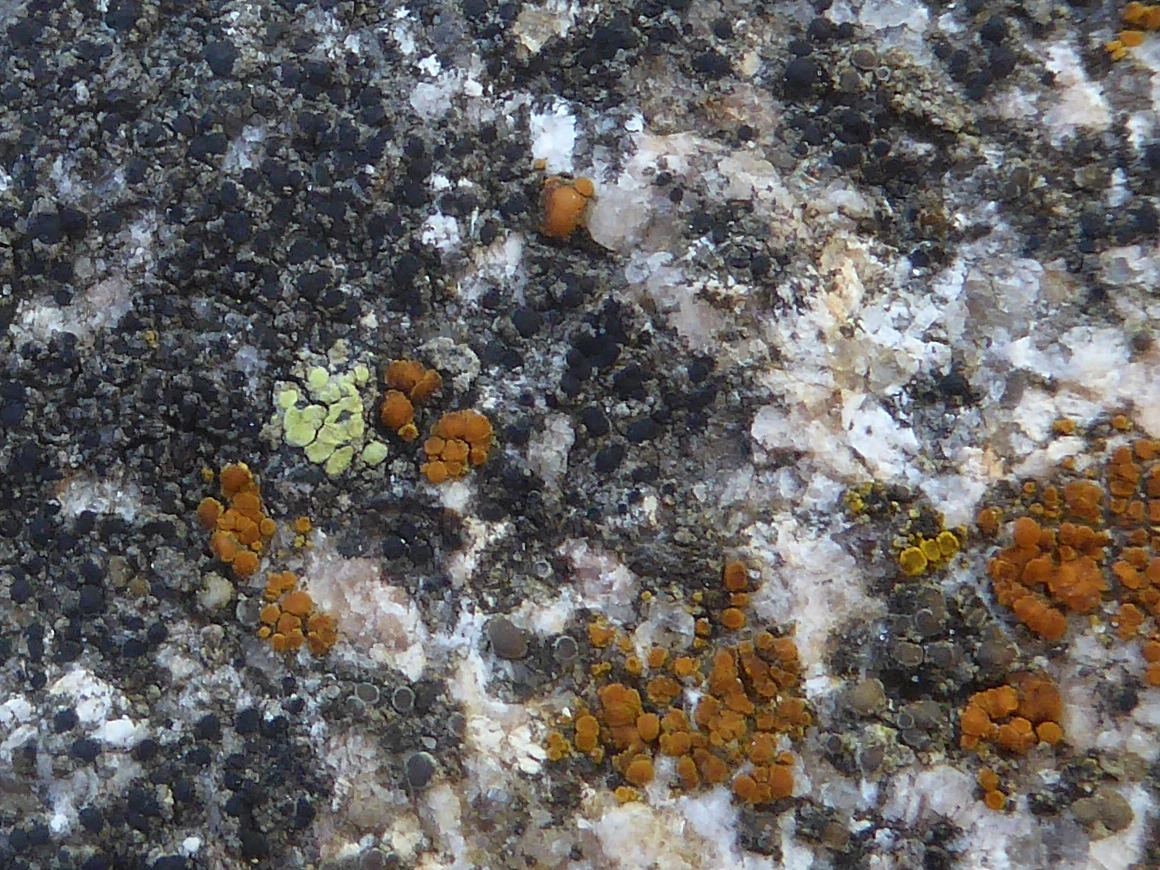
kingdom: Fungi
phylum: Ascomycota
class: Lecanoromycetes
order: Rhizocarpales
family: Rhizocarpaceae
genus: Rhizocarpon
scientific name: Rhizocarpon lecanorinum
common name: krave-landkortlav
